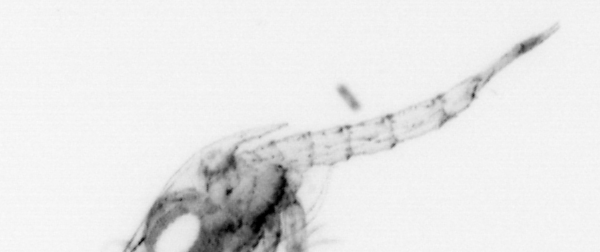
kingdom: Animalia
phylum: Arthropoda
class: Malacostraca
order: Decapoda
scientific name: Decapoda
